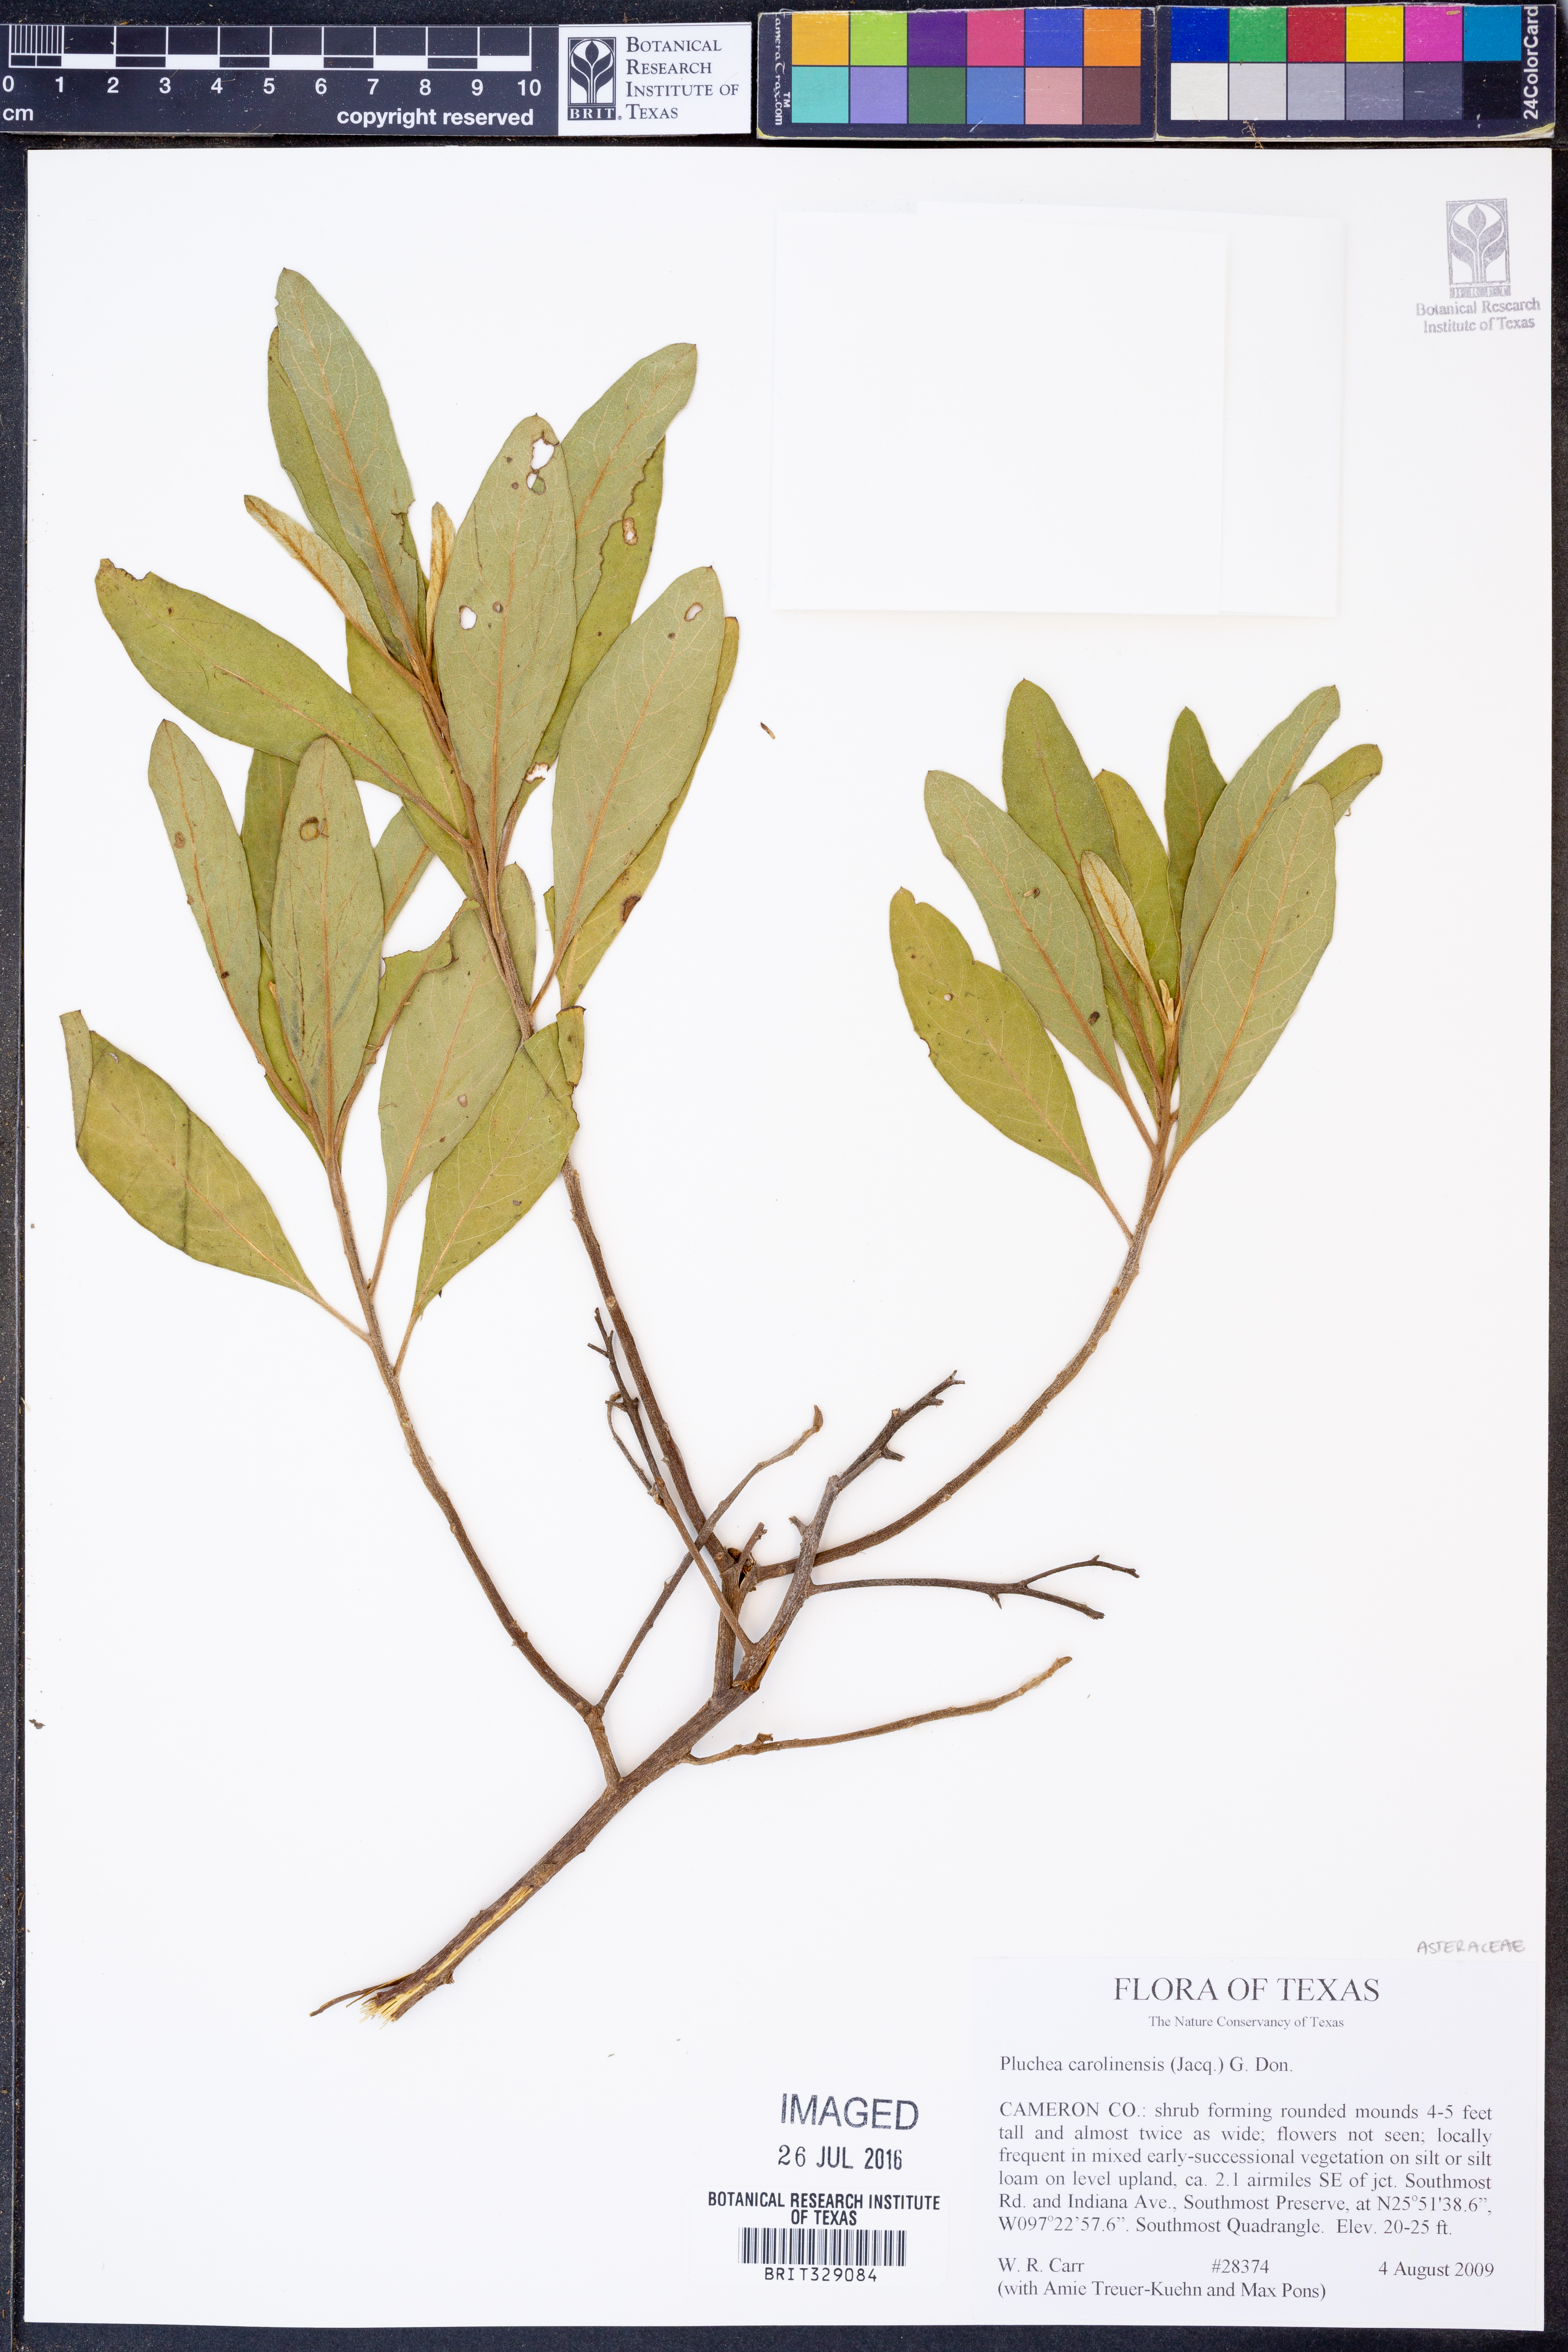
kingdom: Plantae
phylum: Tracheophyta
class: Magnoliopsida
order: Asterales
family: Asteraceae
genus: Pluchea
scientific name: Pluchea carolinensis
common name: Marsh fleabane
